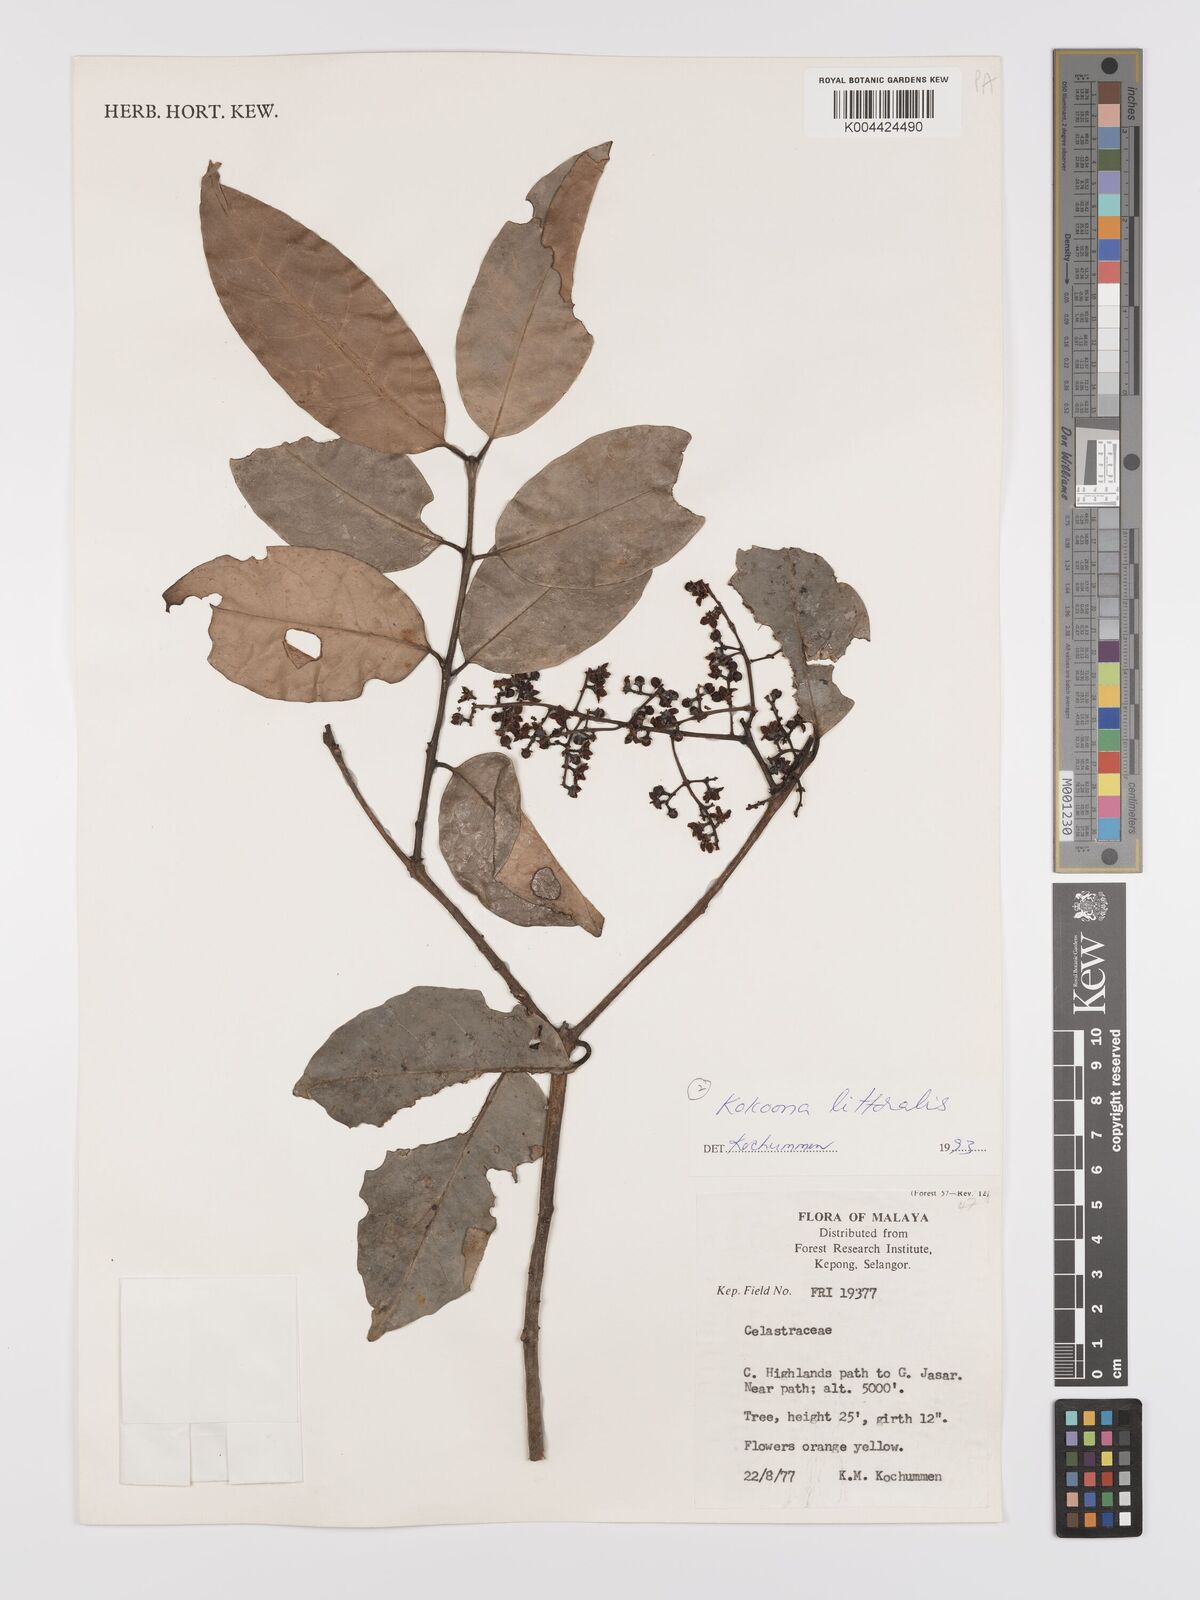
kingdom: Plantae
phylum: Tracheophyta
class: Magnoliopsida
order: Celastrales
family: Celastraceae
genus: Kokoona
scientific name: Kokoona littoralis
